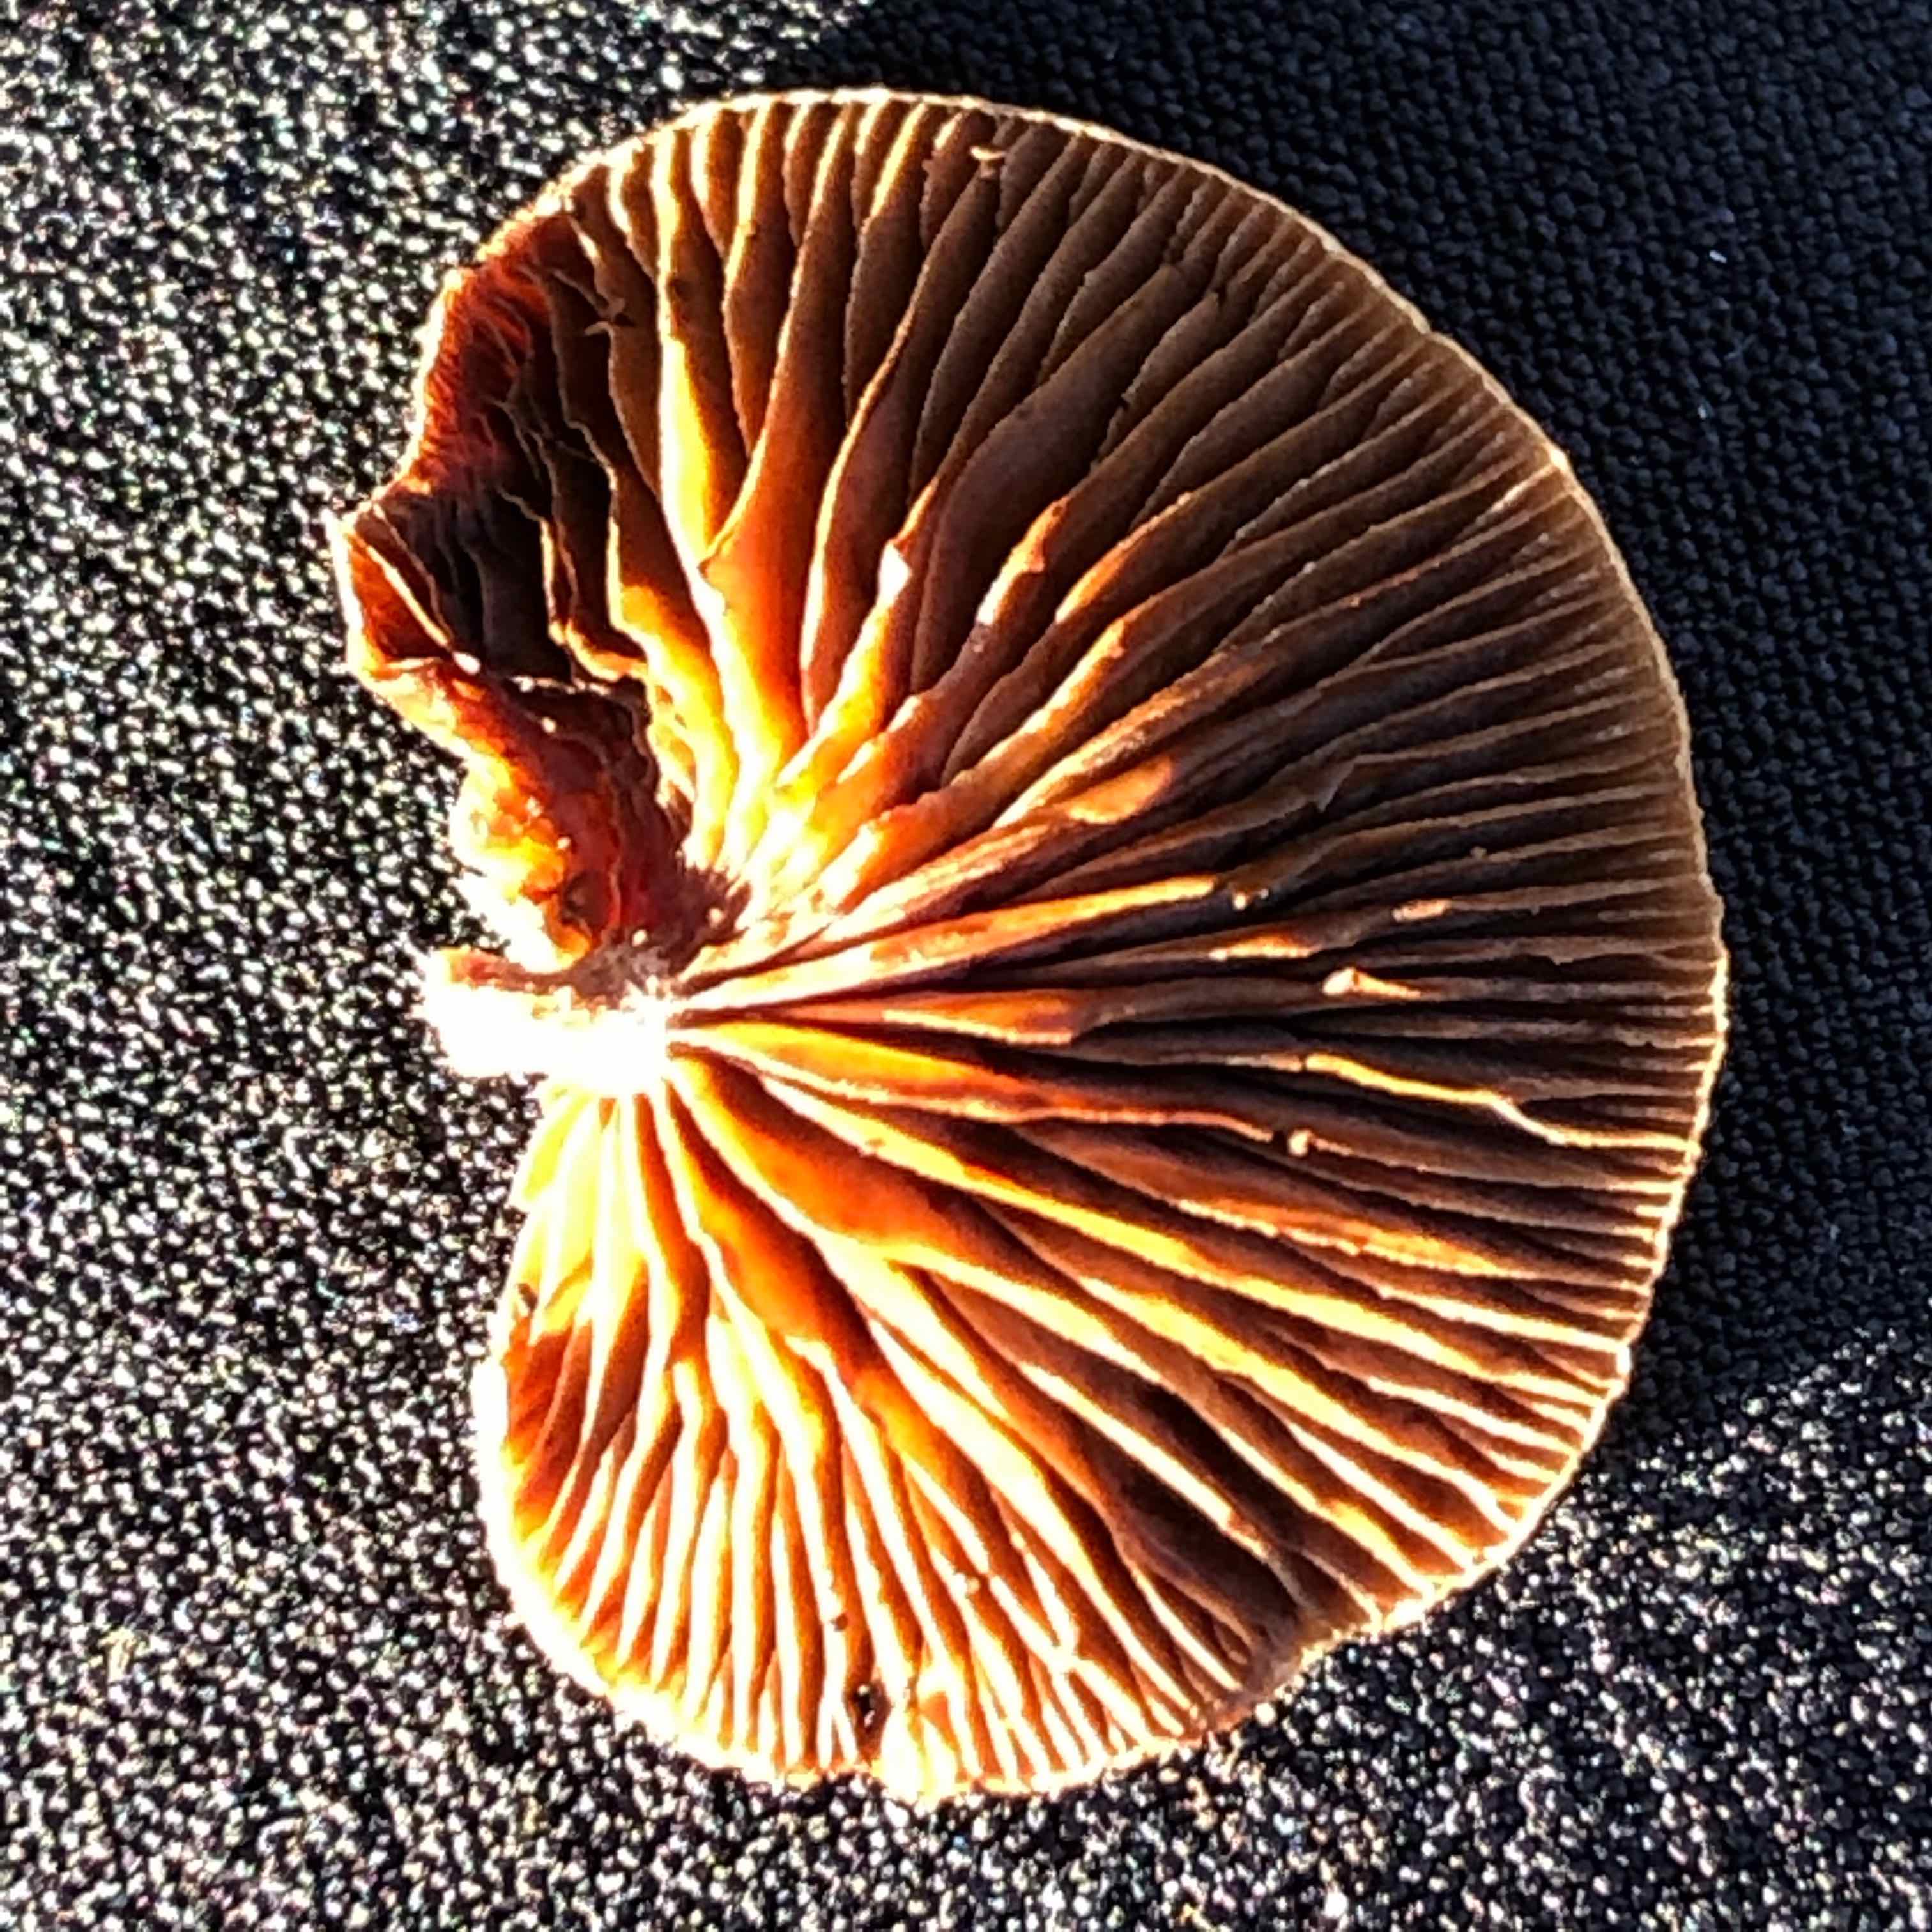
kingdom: Fungi
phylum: Basidiomycota
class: Agaricomycetes
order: Agaricales
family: Strophariaceae
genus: Deconica
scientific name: Deconica horizontalis
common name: ved-stråhat
